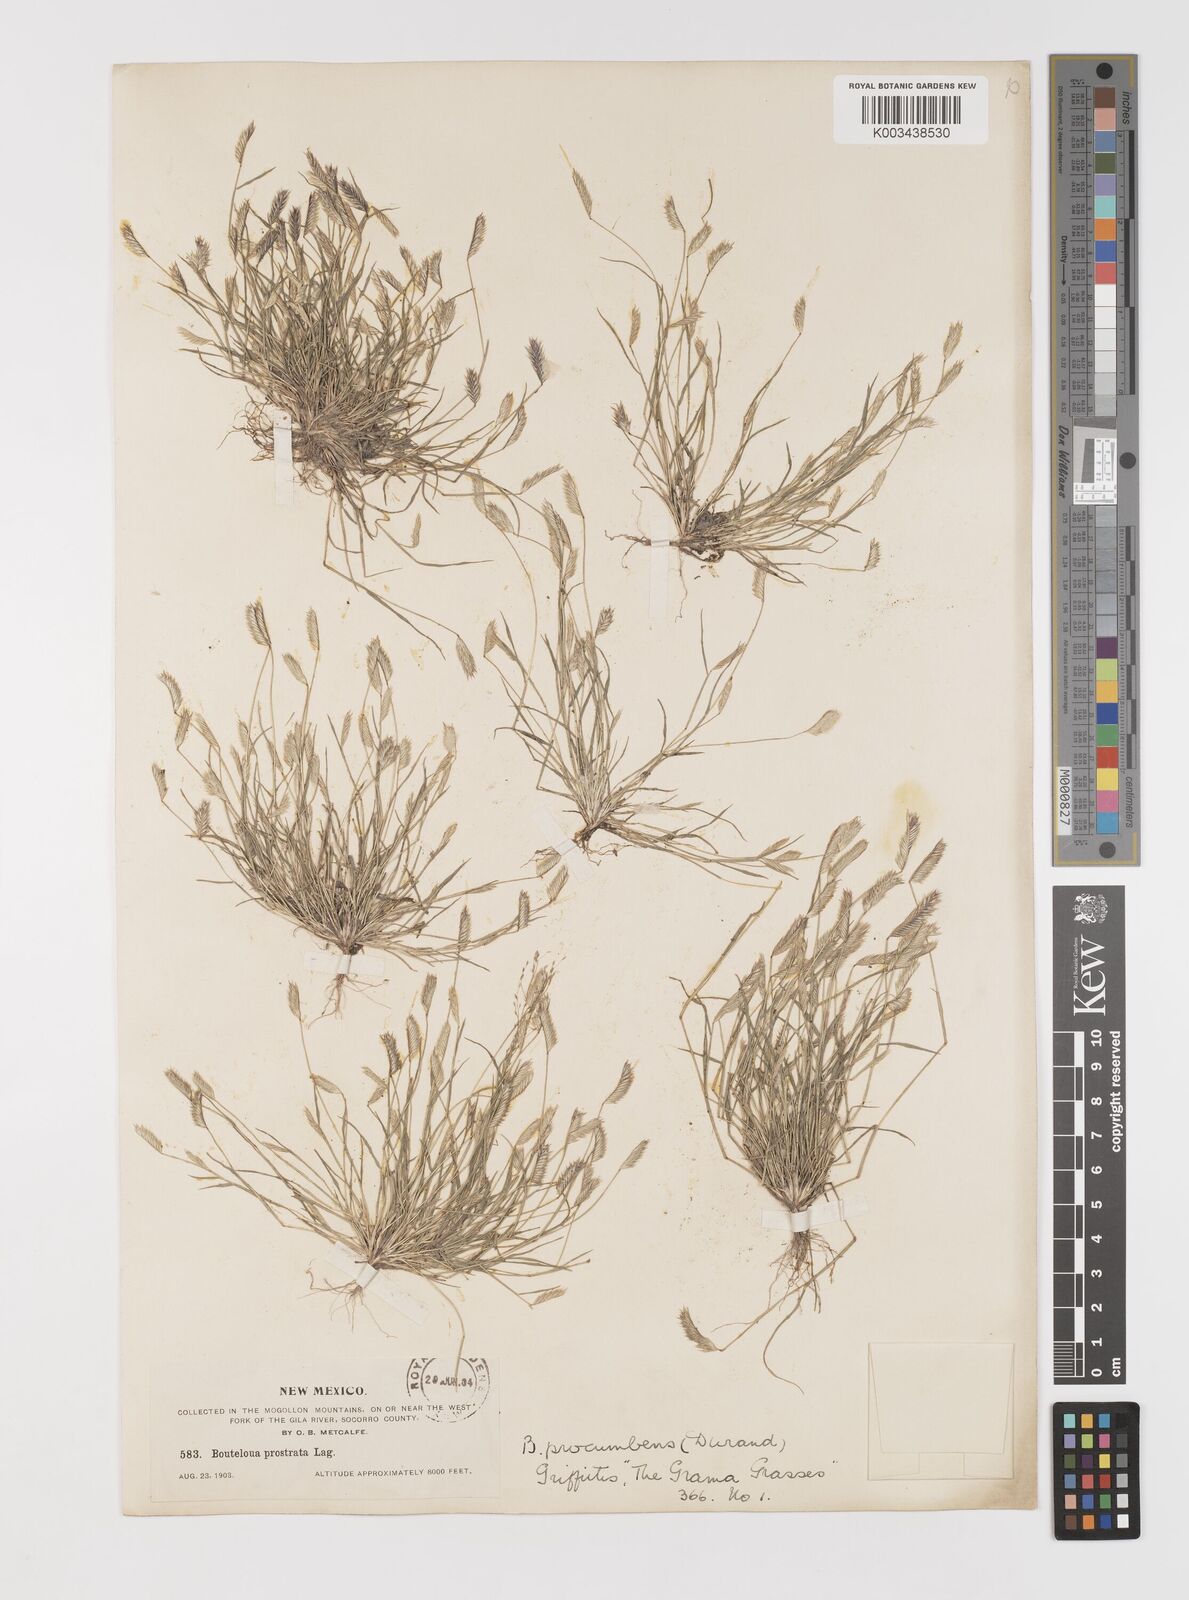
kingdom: Plantae
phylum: Tracheophyta
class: Liliopsida
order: Poales
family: Poaceae
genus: Bouteloua
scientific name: Bouteloua simplex
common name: Mat grama
